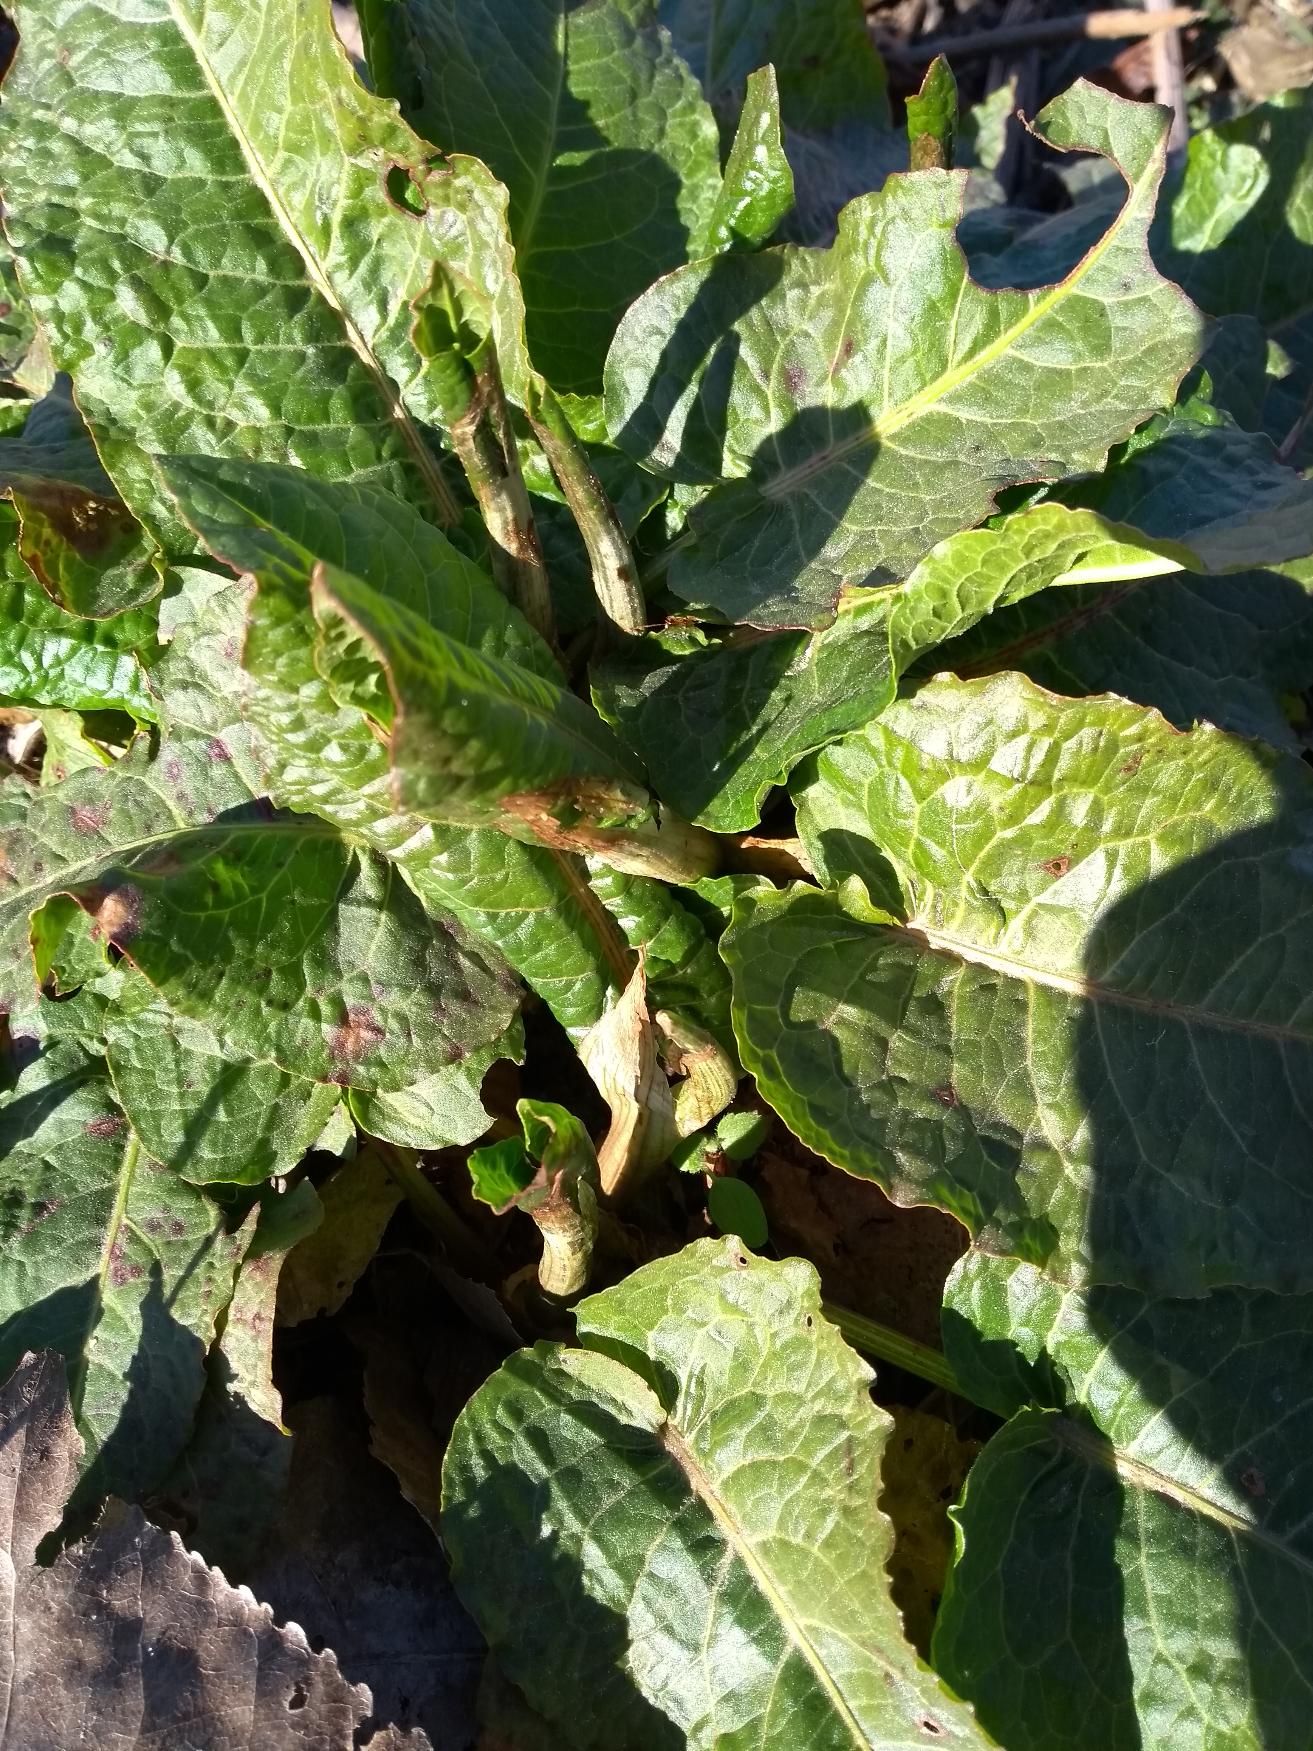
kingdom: Plantae
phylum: Tracheophyta
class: Magnoliopsida
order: Caryophyllales
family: Polygonaceae
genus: Rumex
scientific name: Rumex obtusifolius
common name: Butbladet skræppe
